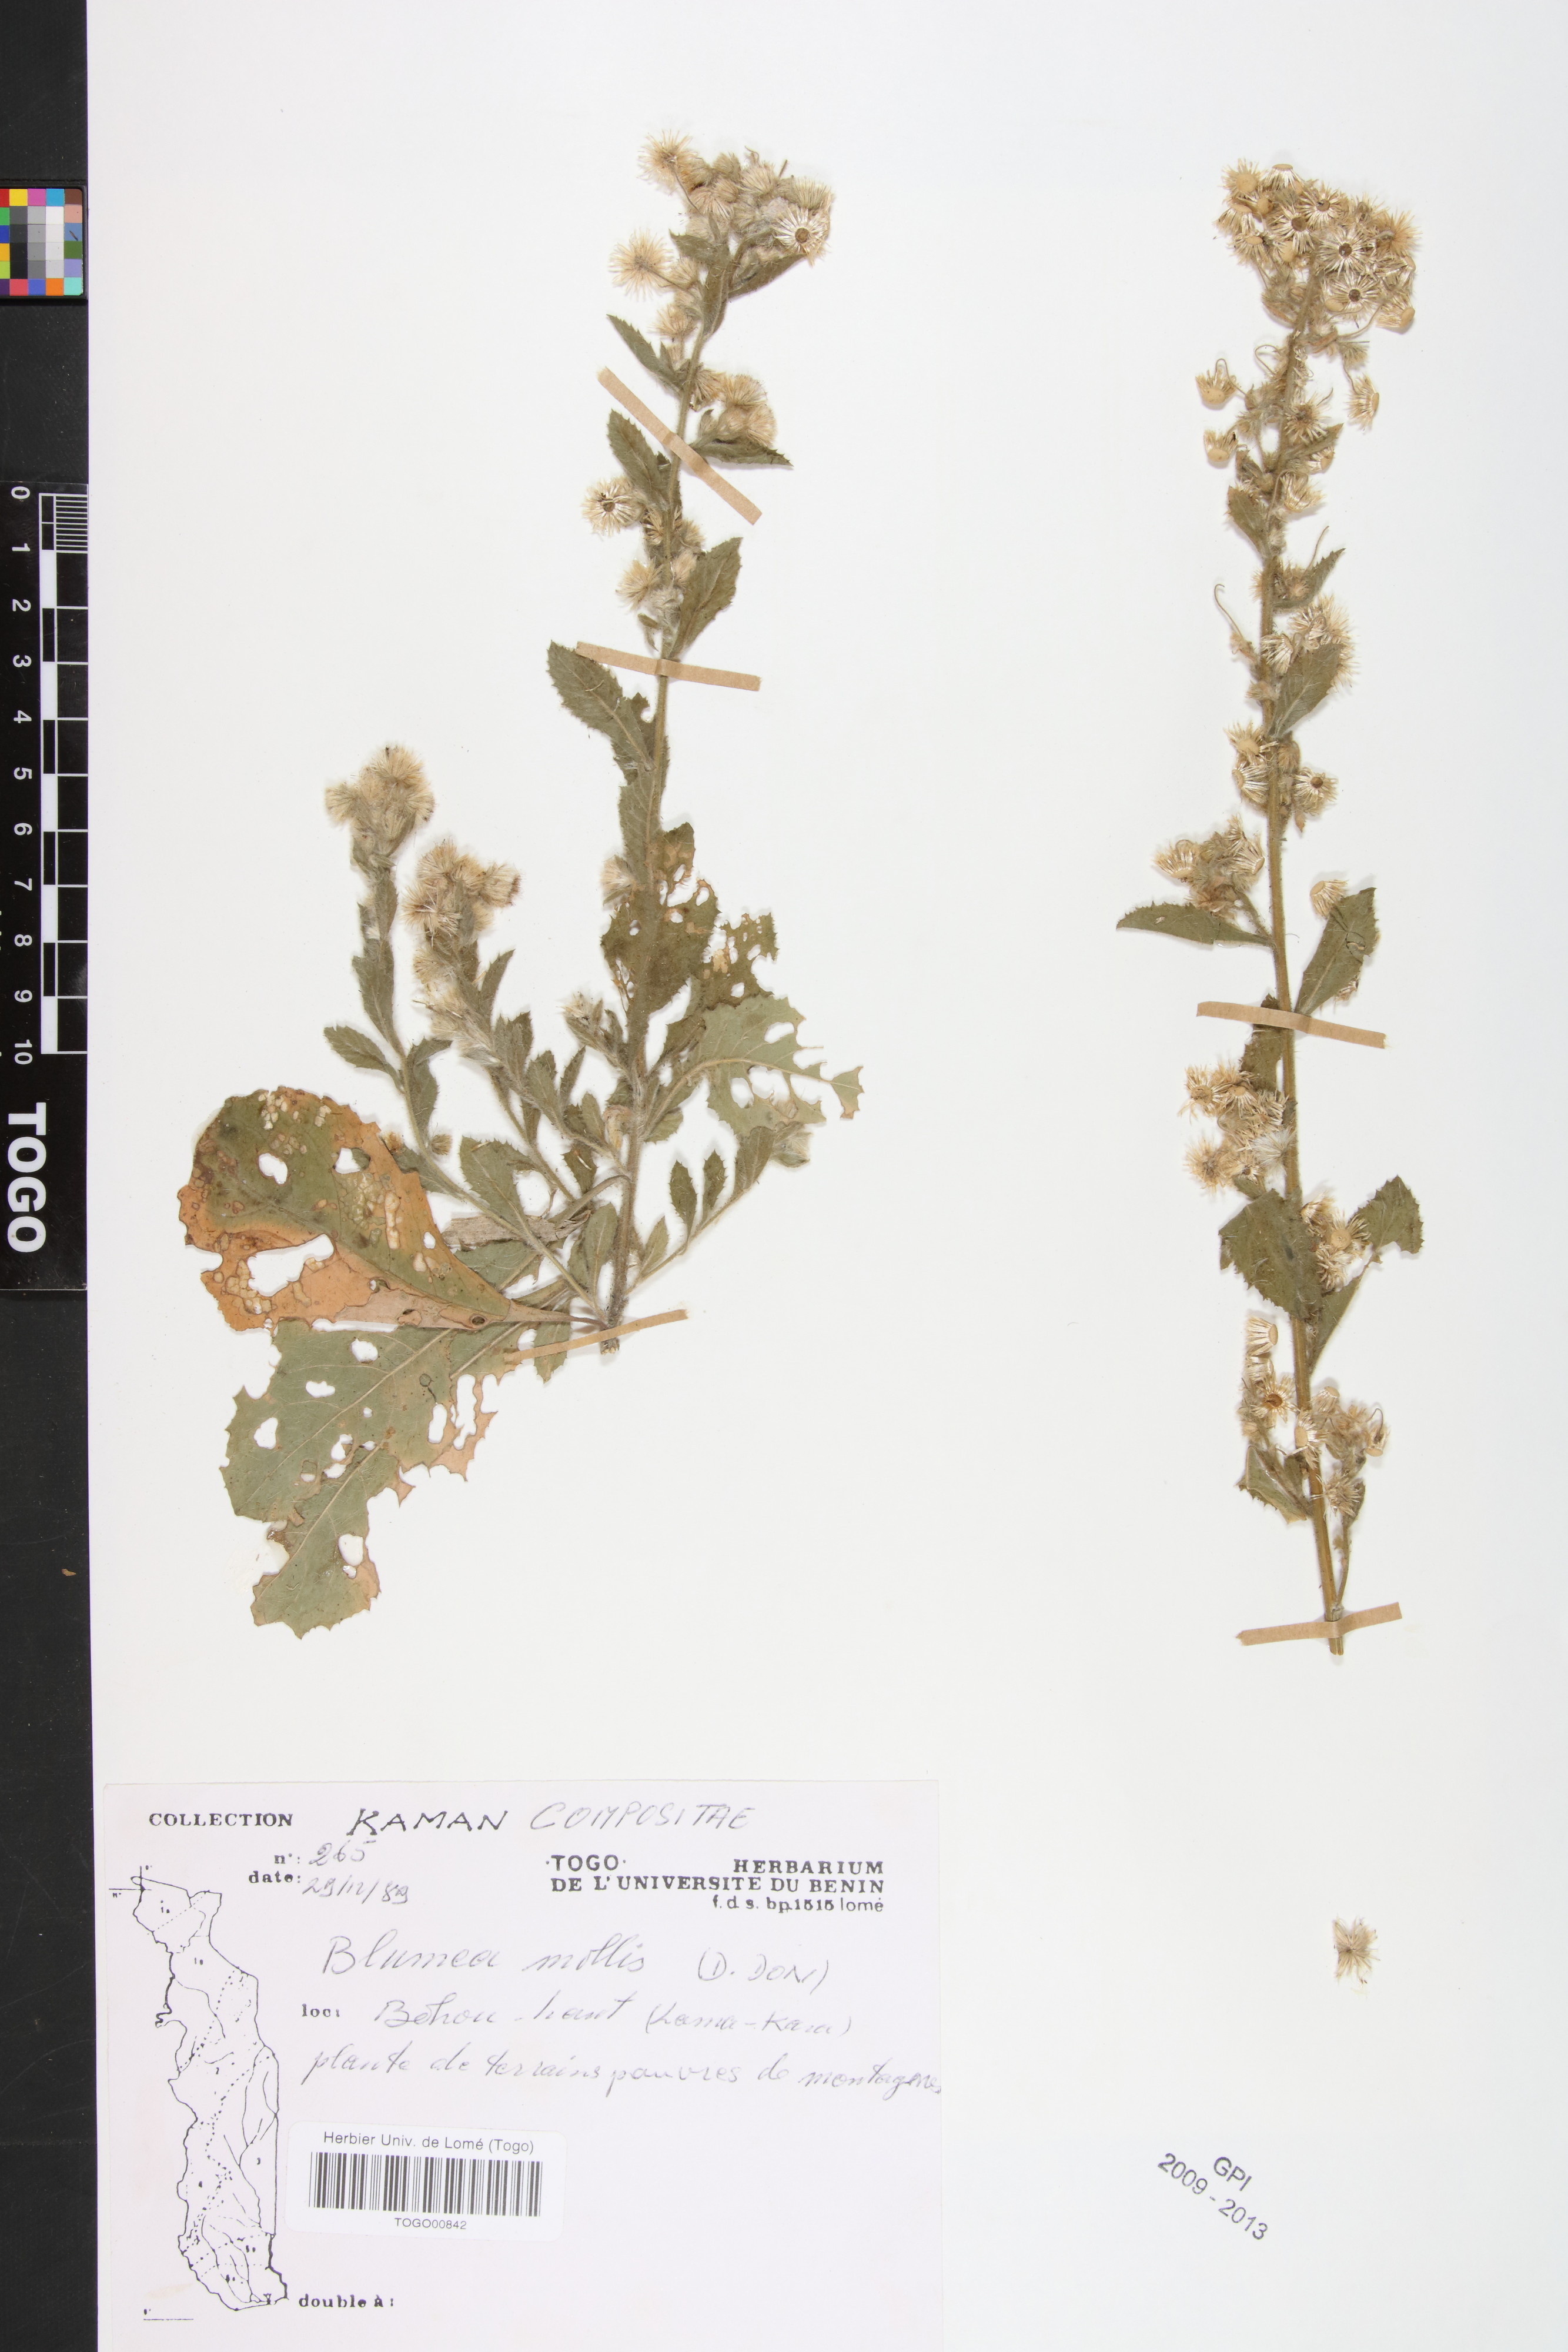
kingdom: Plantae
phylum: Tracheophyta
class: Magnoliopsida
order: Asterales
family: Asteraceae
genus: Blumea
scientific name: Blumea axillaris
